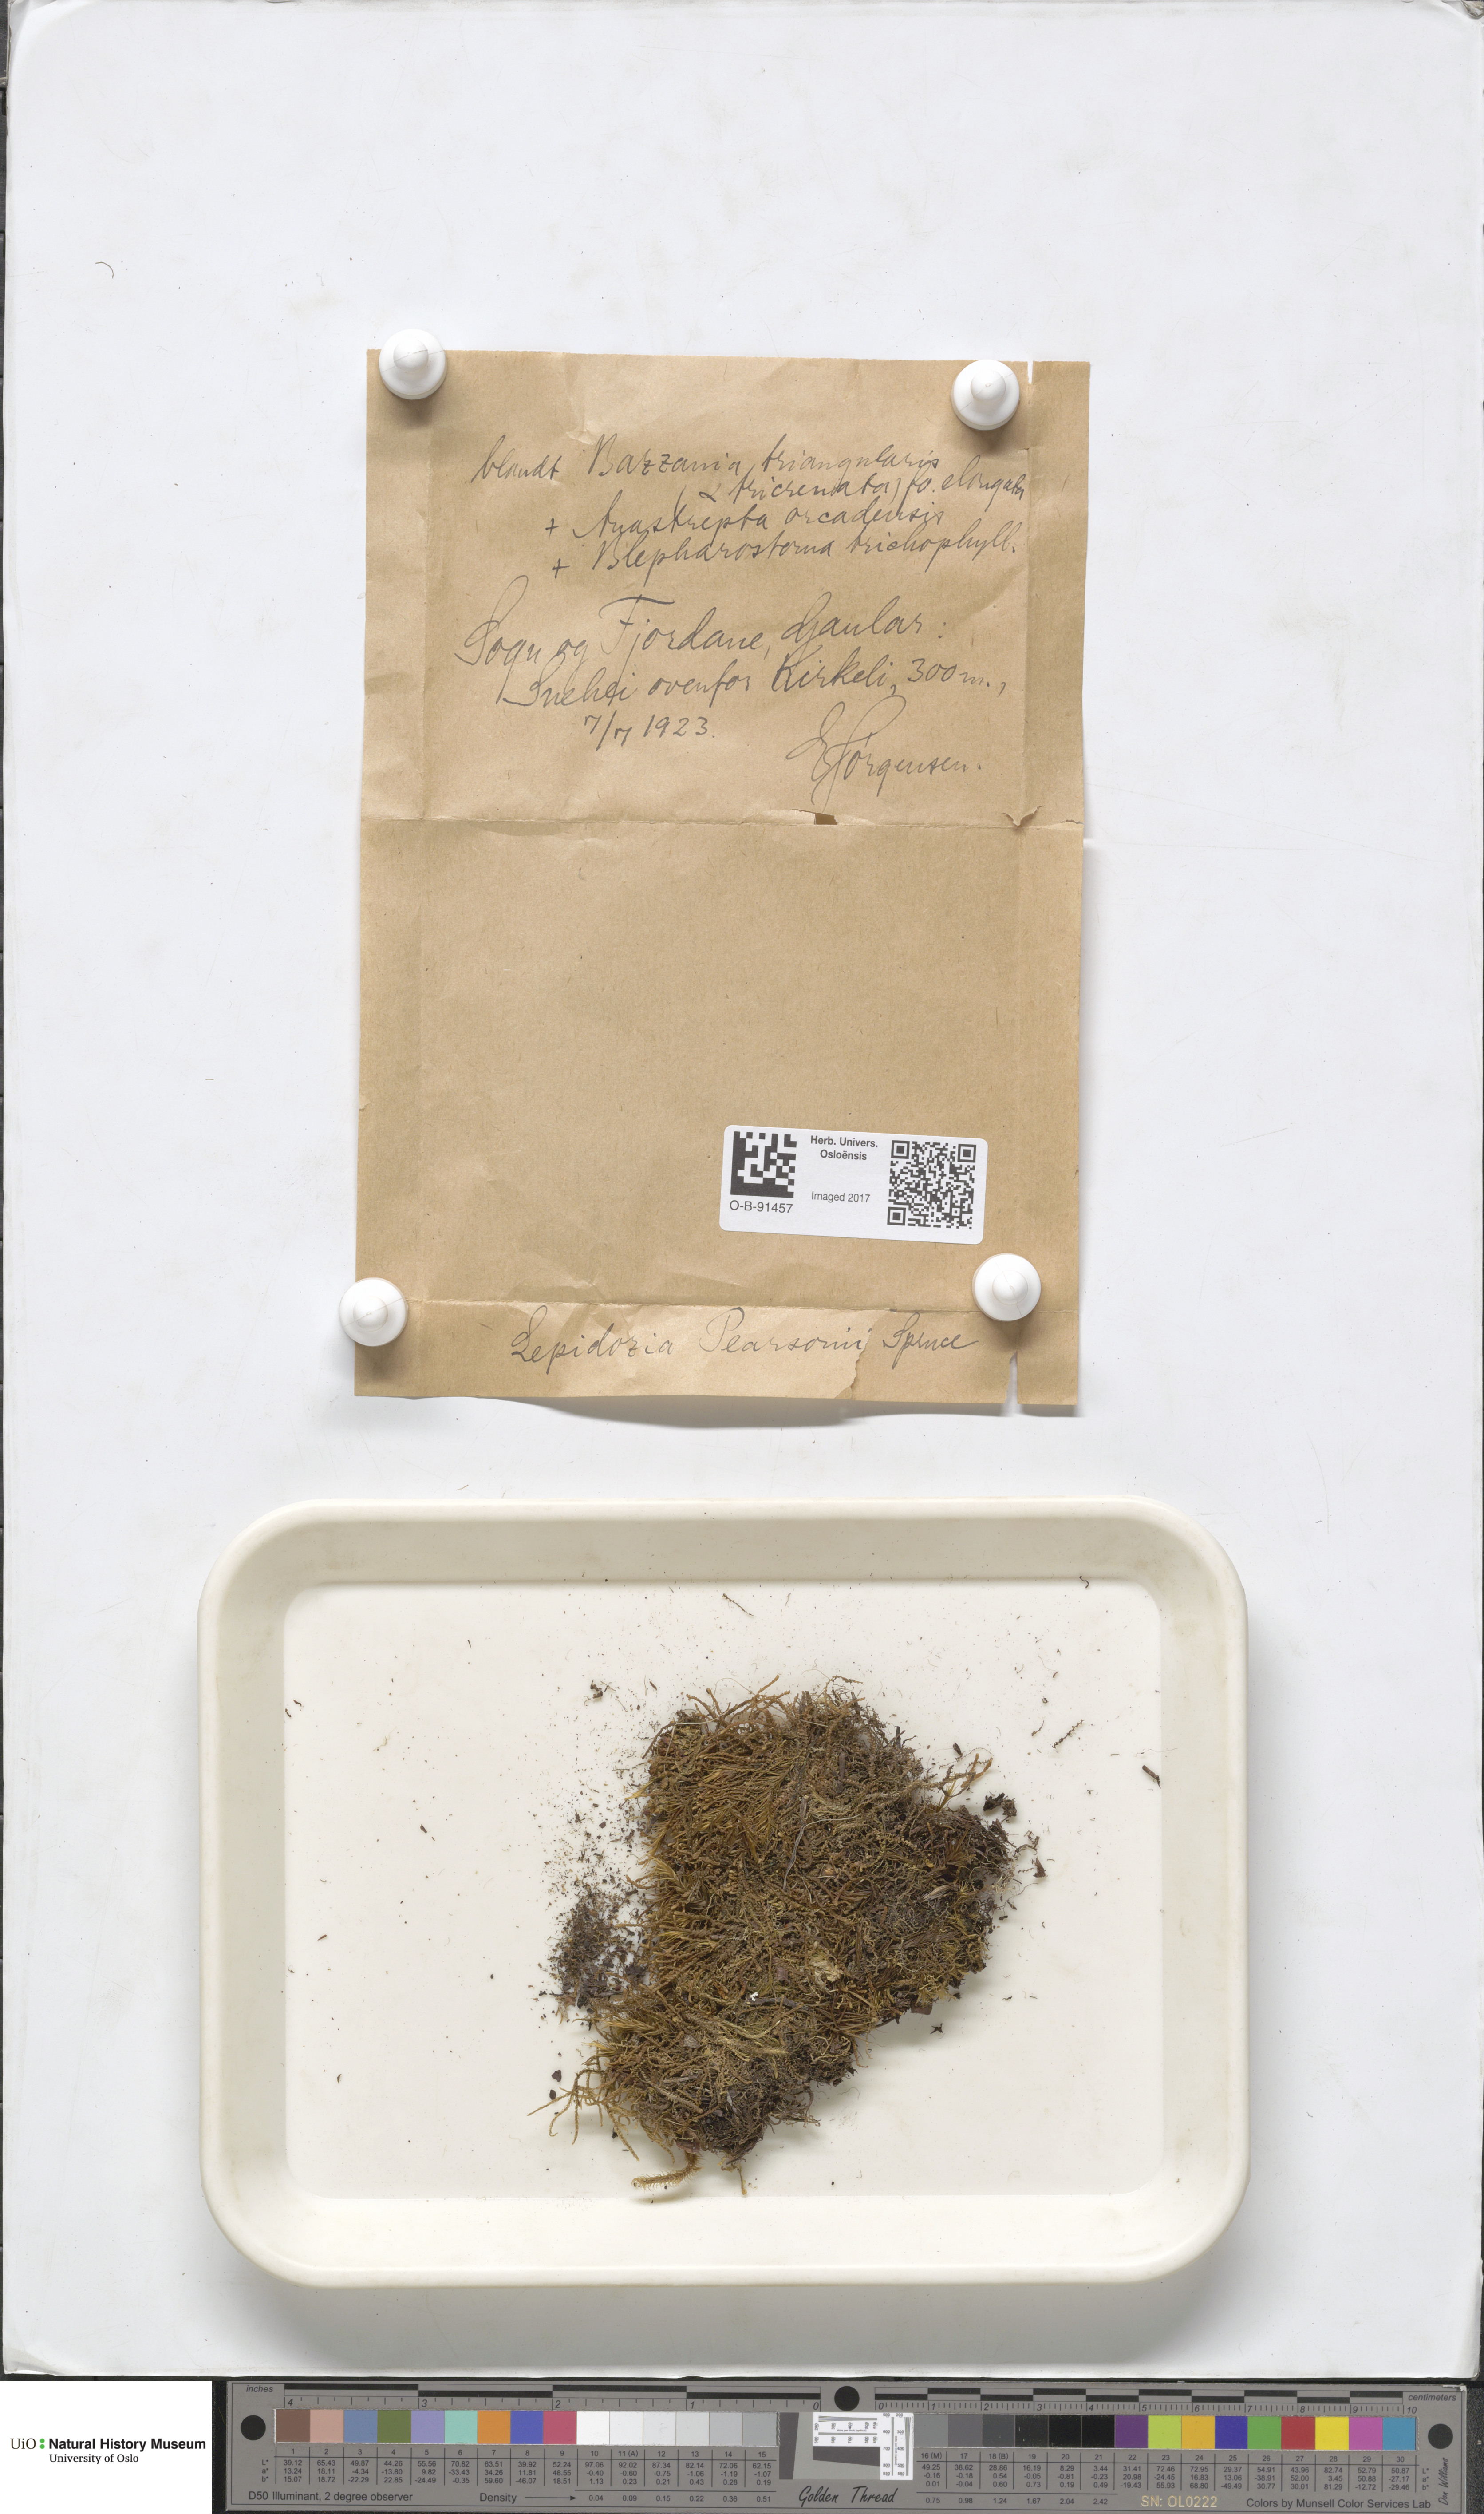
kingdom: Plantae
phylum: Marchantiophyta
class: Jungermanniopsida
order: Jungermanniales
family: Lepidoziaceae
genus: Lepidozia
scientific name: Lepidozia pearsonii
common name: Pearson's fingerwort
